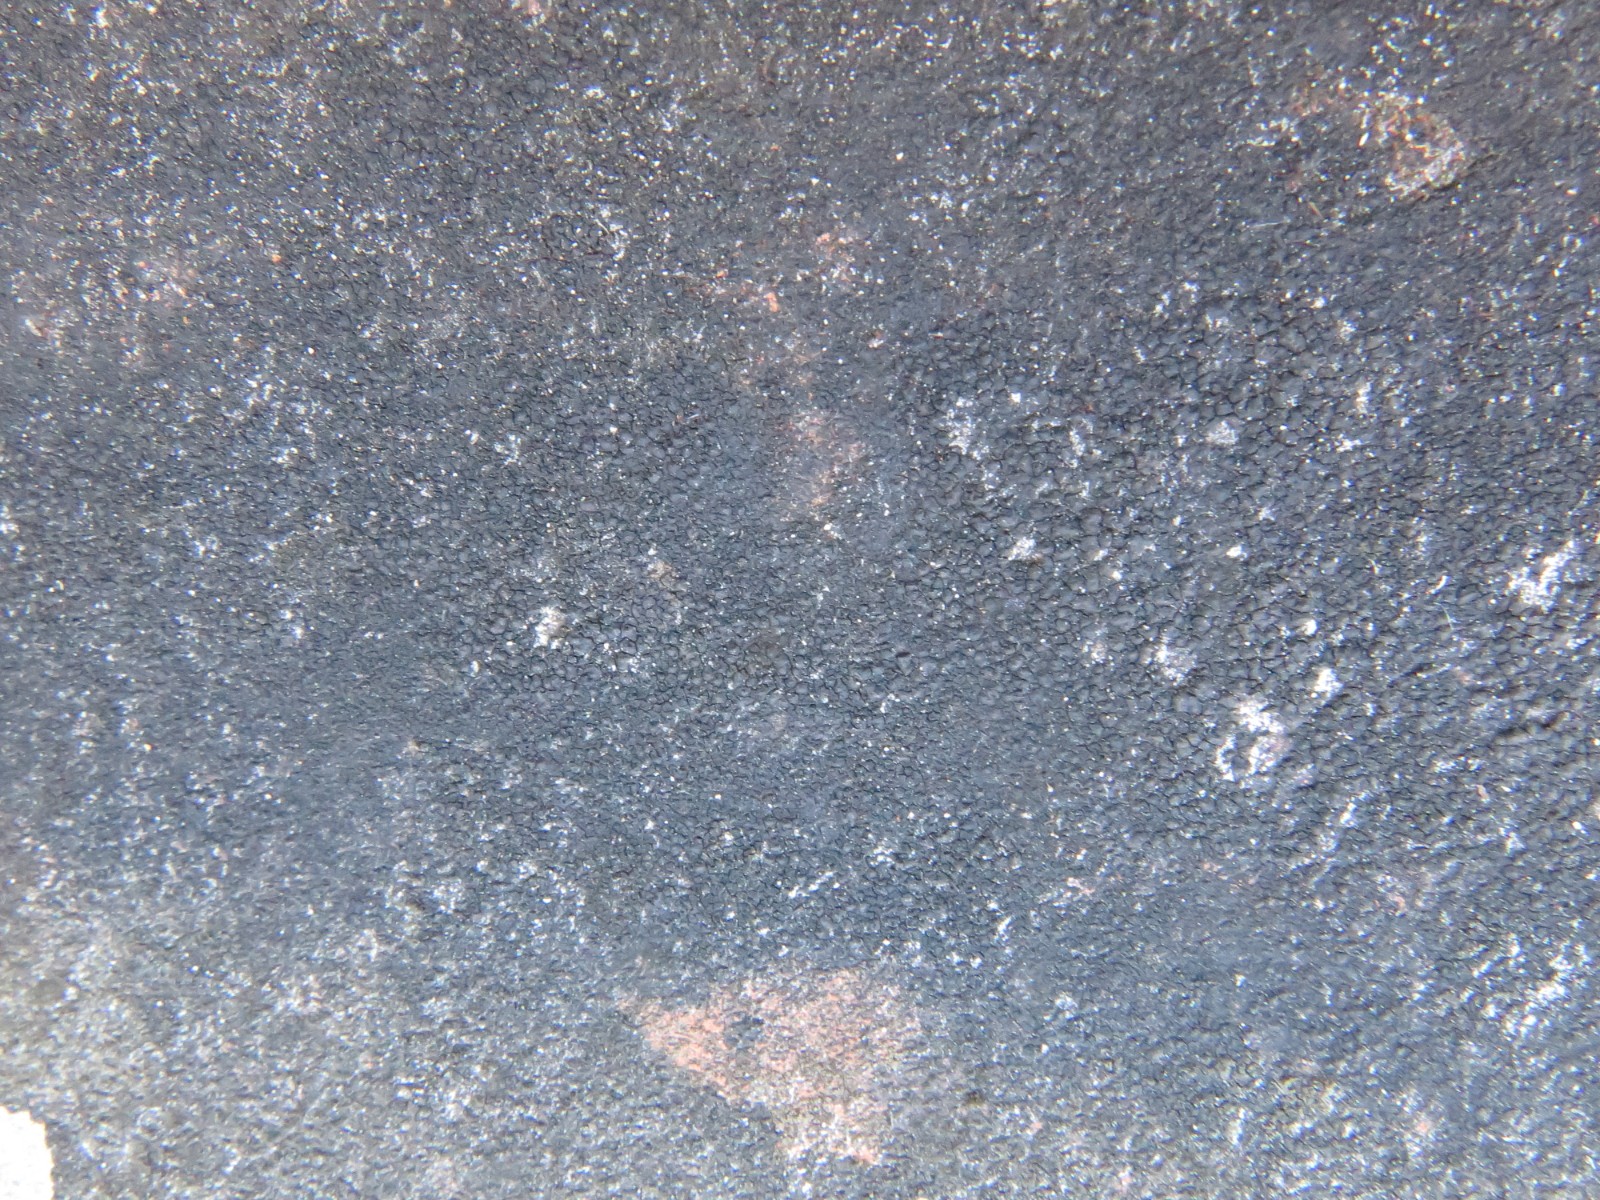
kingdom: Fungi
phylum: Ascomycota
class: Eurotiomycetes
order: Verrucariales
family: Verrucariaceae
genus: Verrucaria
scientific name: Verrucaria nigrescens
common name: sortbrun vortelav
